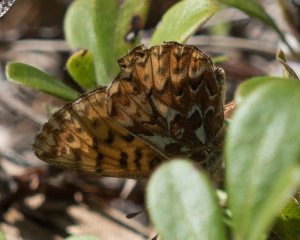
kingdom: Animalia
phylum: Arthropoda
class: Insecta
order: Lepidoptera
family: Nymphalidae
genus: Boloria
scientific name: Boloria freija
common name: Freija Fritillary
